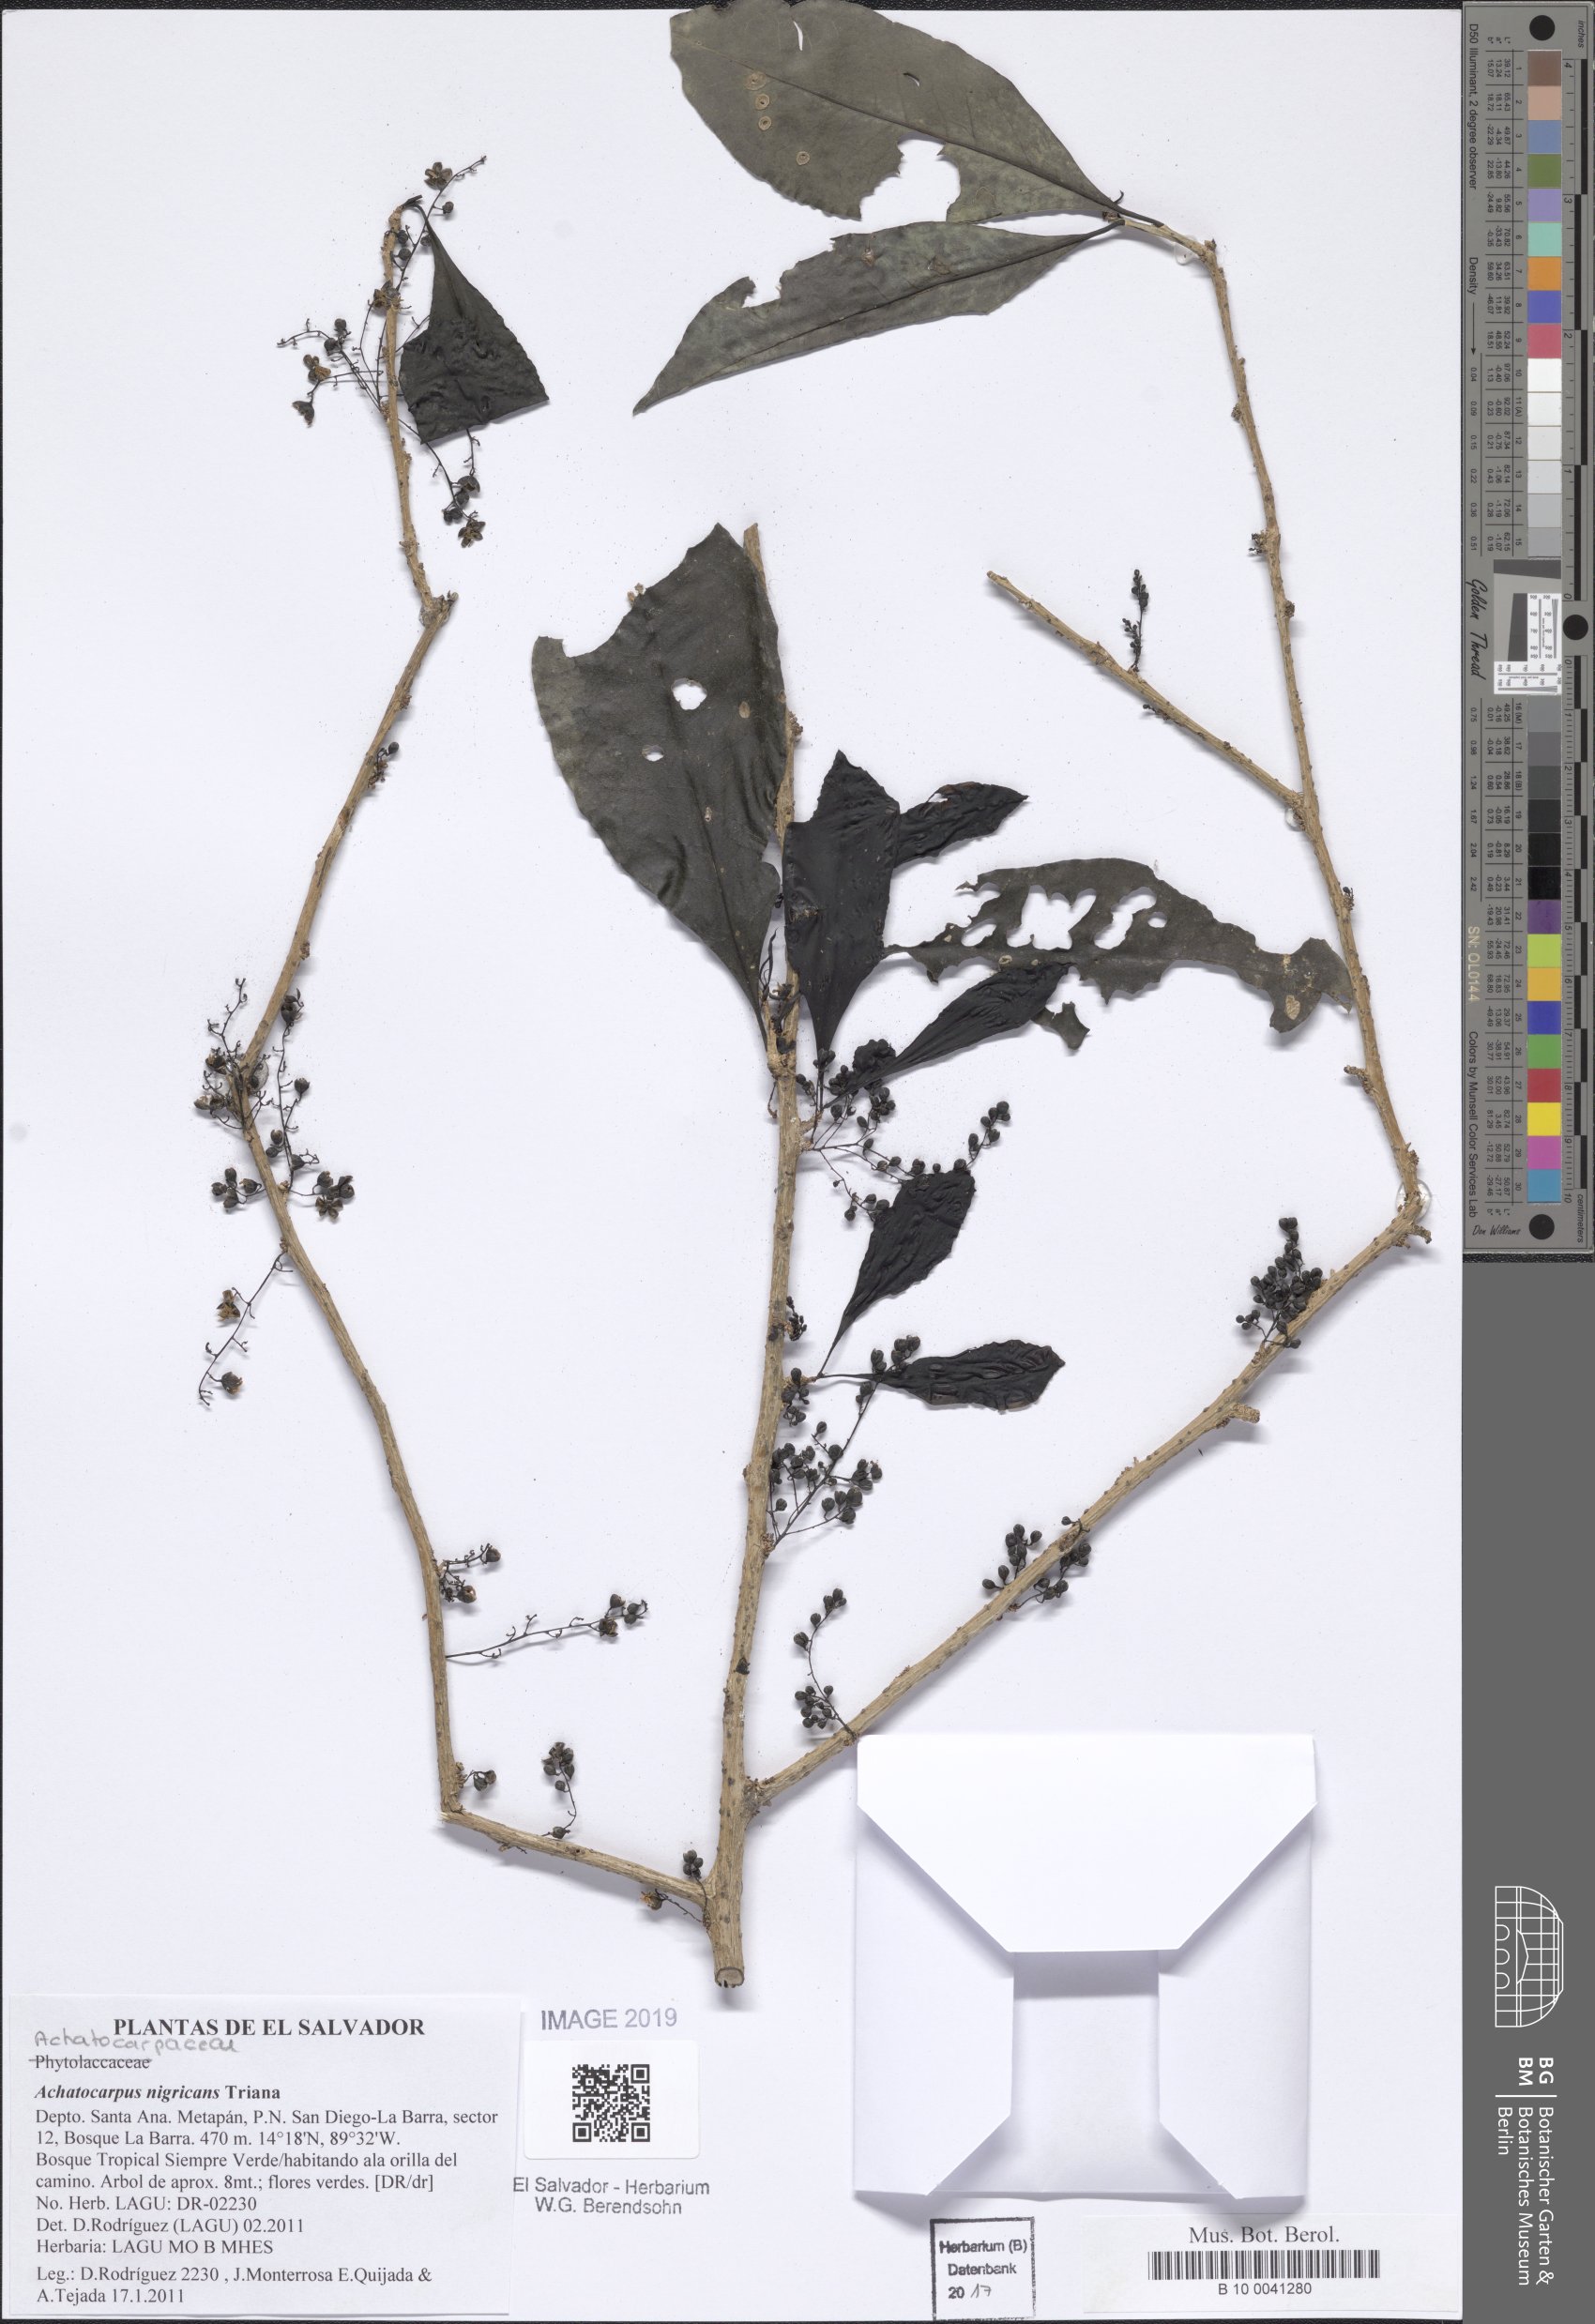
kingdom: Plantae
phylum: Tracheophyta
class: Magnoliopsida
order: Caryophyllales
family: Achatocarpaceae
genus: Achatocarpus
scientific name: Achatocarpus nigricans
